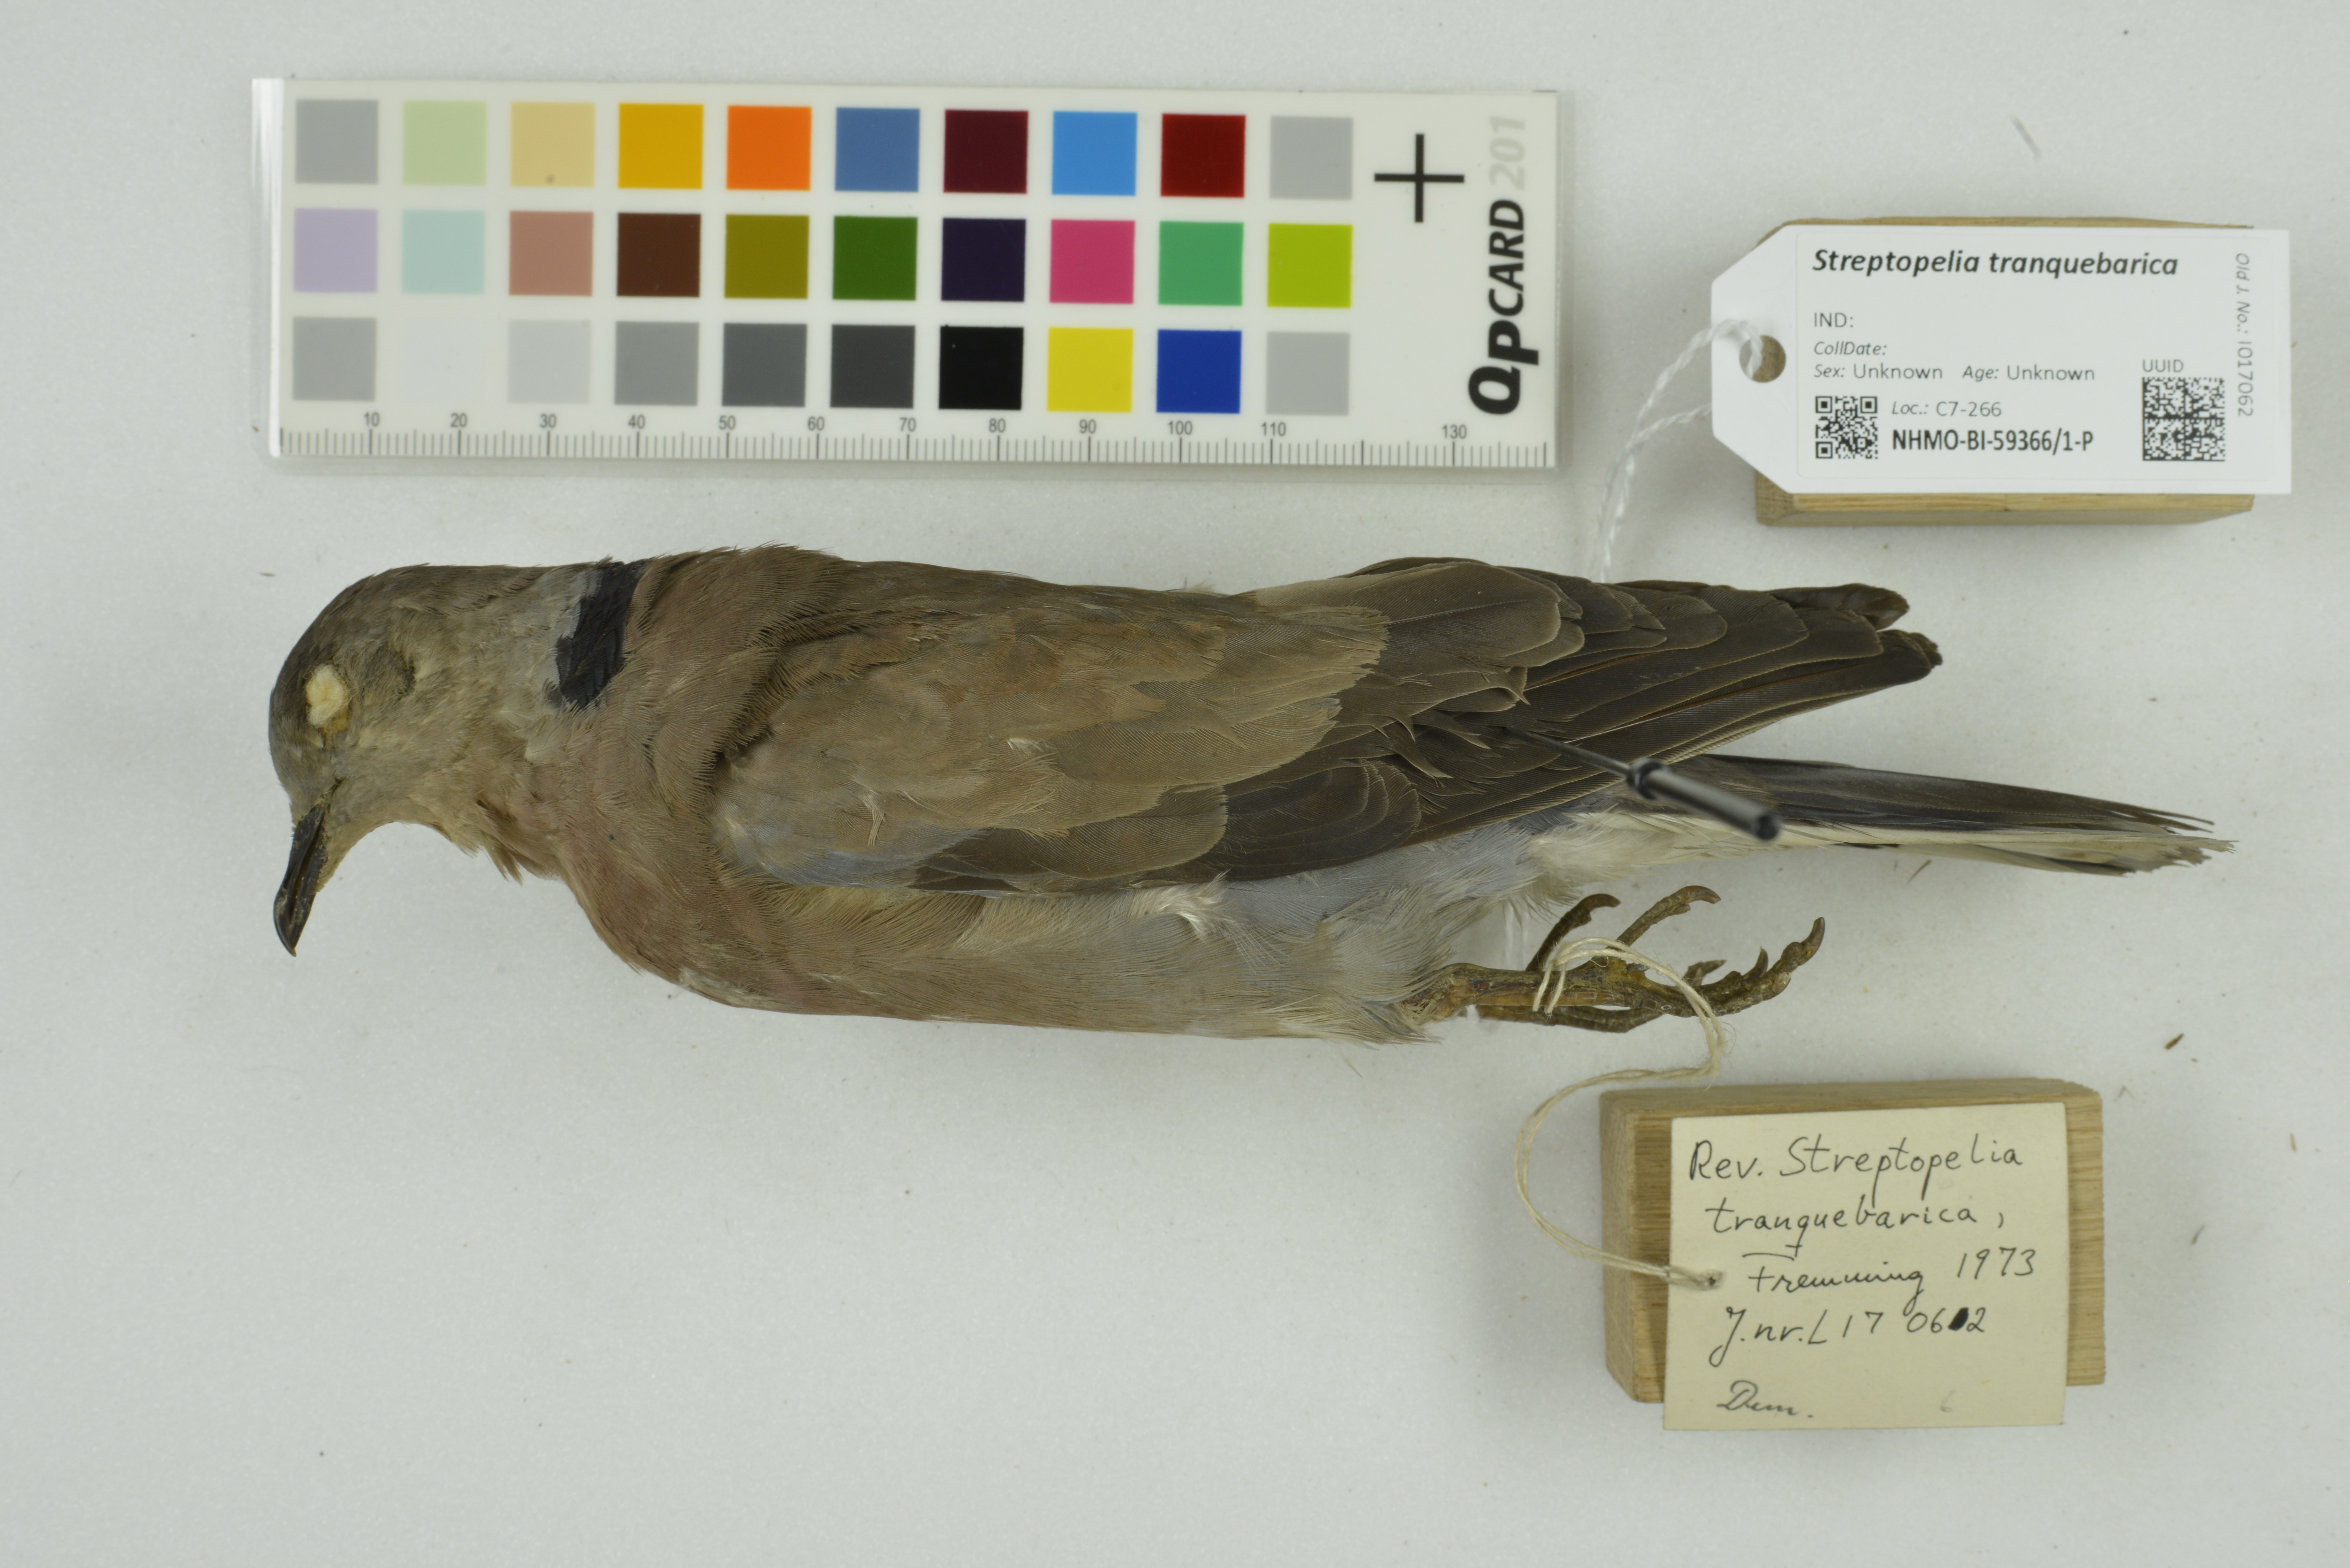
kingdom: Animalia
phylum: Chordata
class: Aves
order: Columbiformes
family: Columbidae
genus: Streptopelia
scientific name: Streptopelia tranquebarica
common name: Red turtle dove
